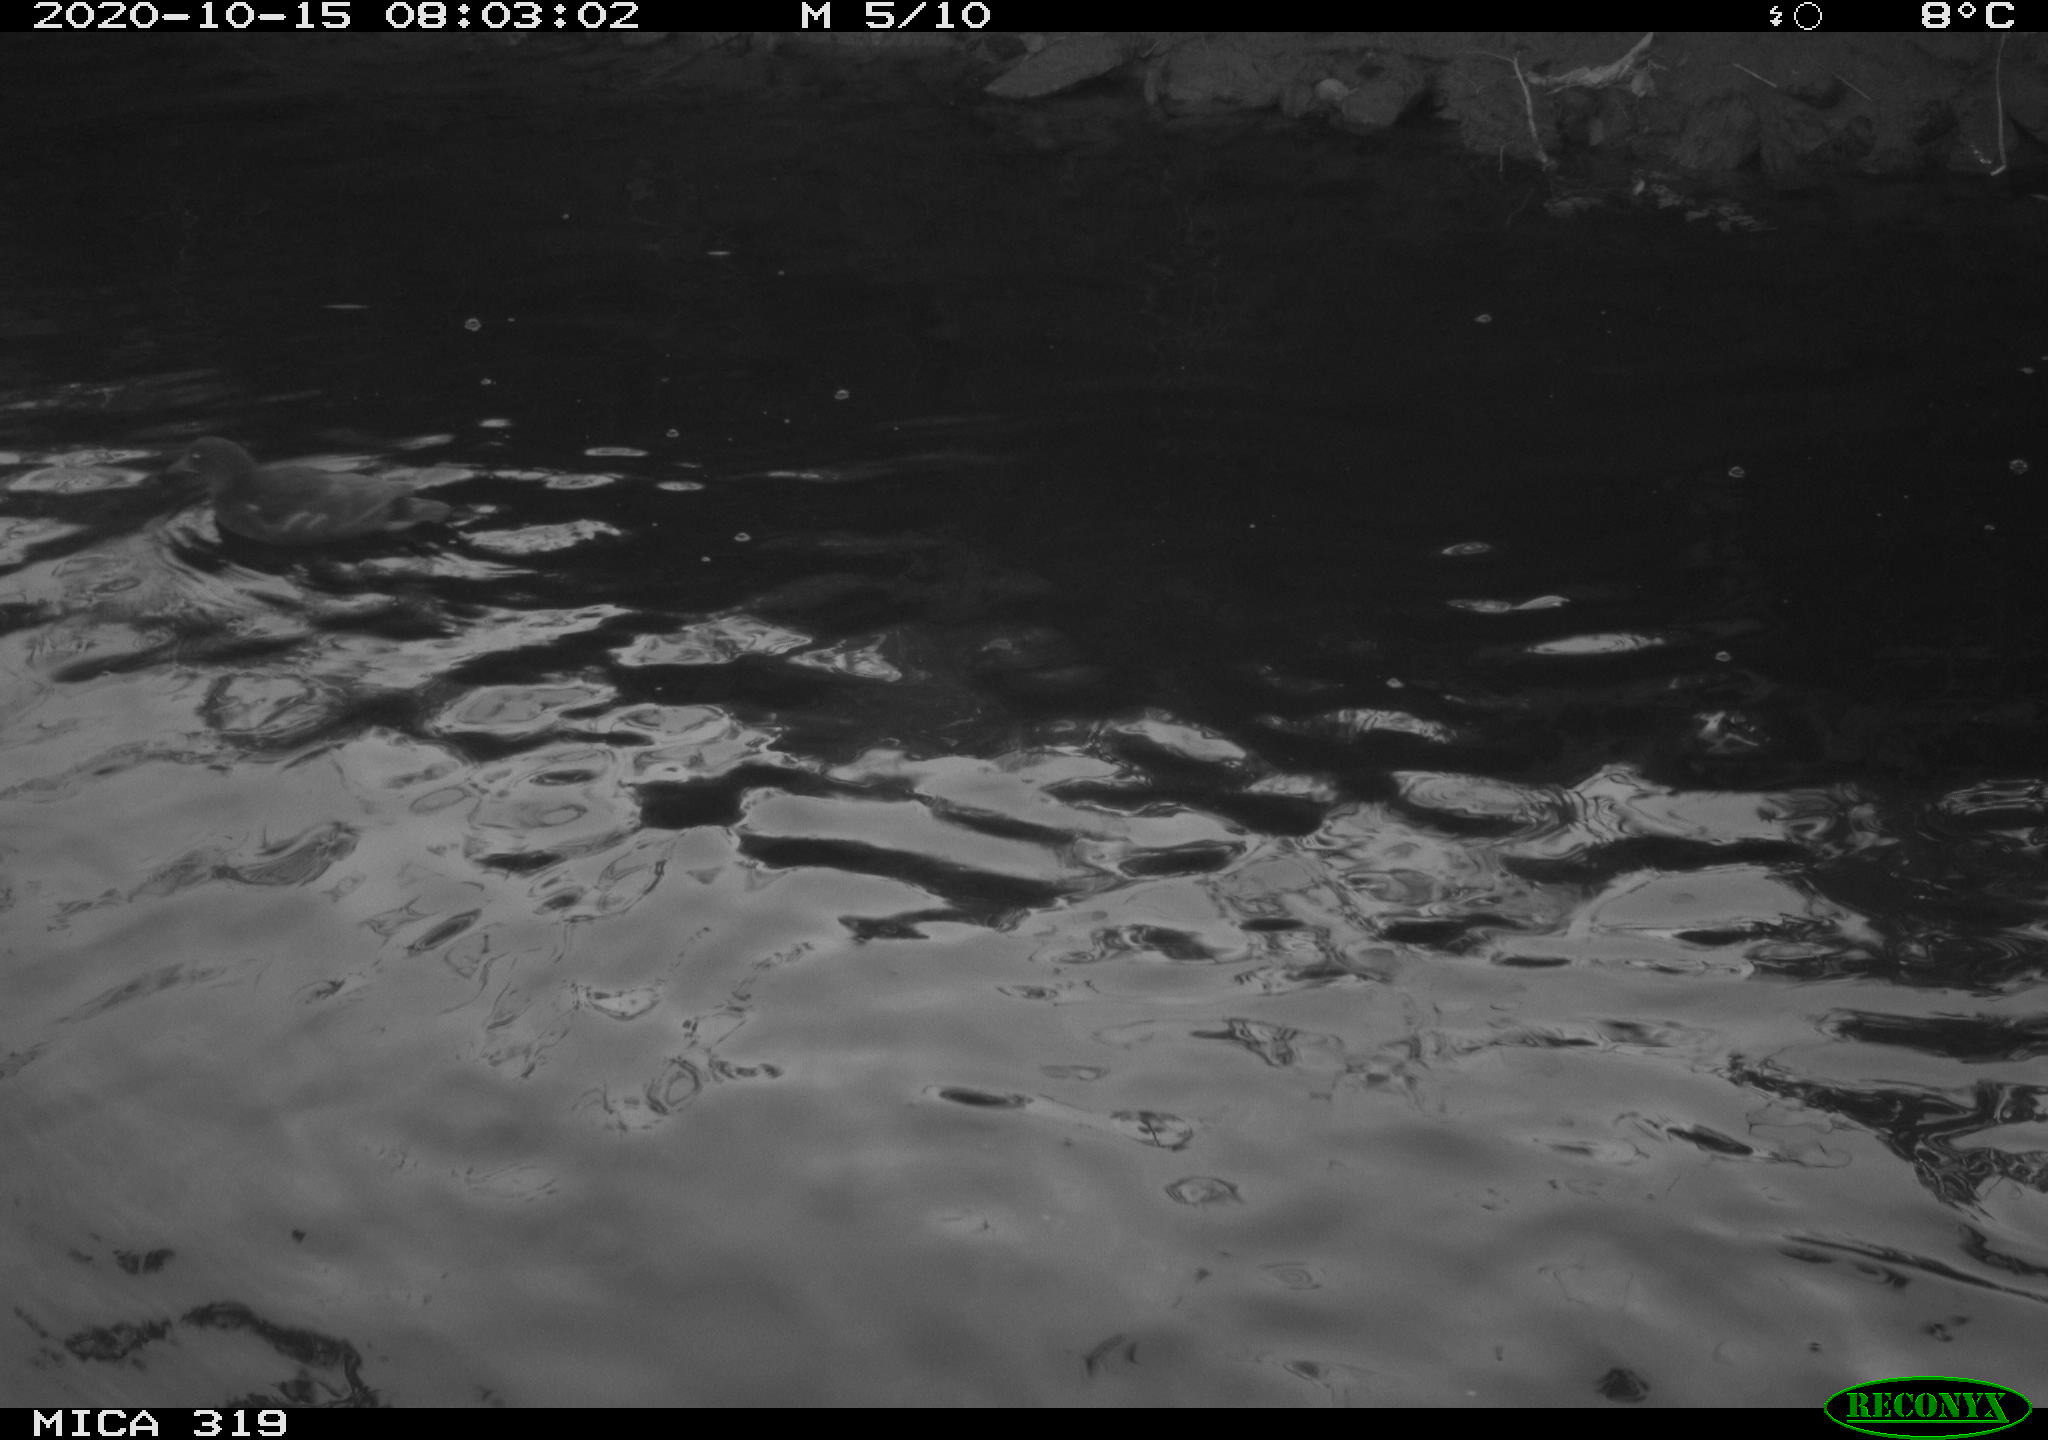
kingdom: Animalia
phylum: Chordata
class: Aves
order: Gruiformes
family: Rallidae
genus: Gallinula
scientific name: Gallinula chloropus
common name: Common moorhen
